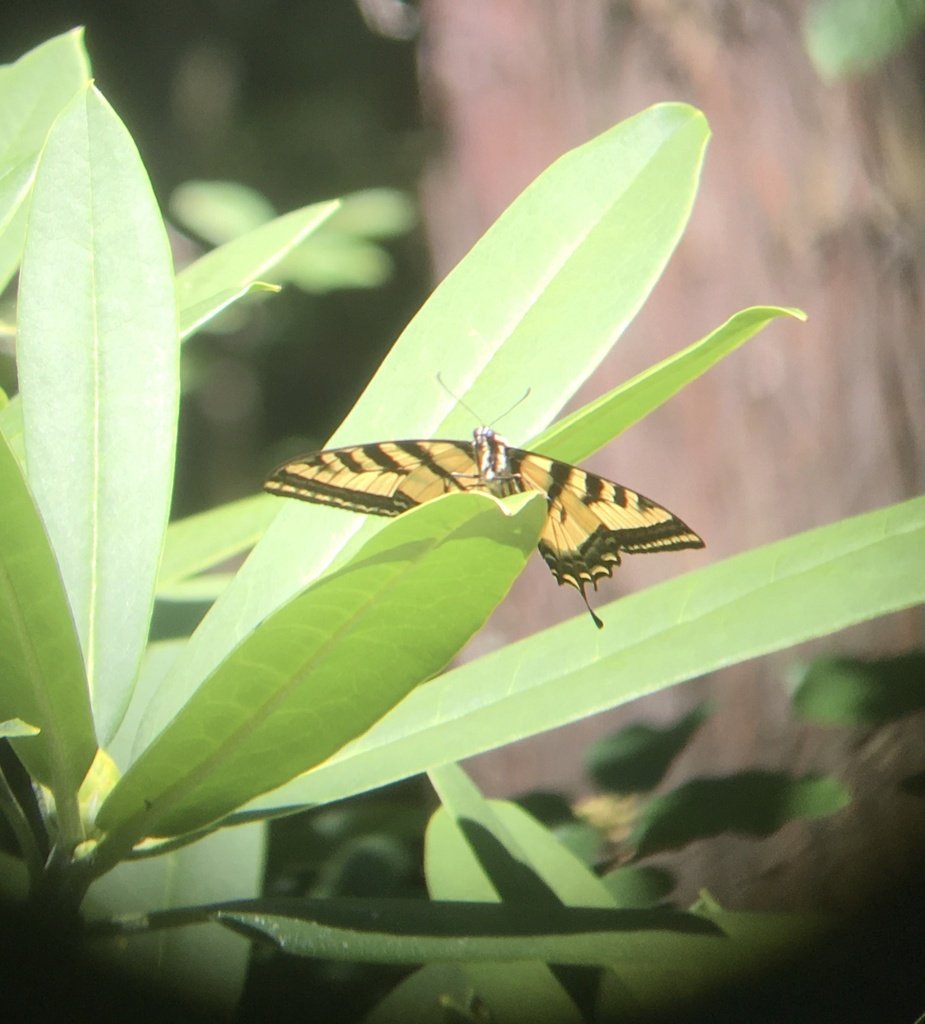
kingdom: Animalia
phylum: Arthropoda
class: Insecta
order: Lepidoptera
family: Papilionidae
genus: Pterourus
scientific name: Pterourus rutulus
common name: Western Tiger Swallowtail
